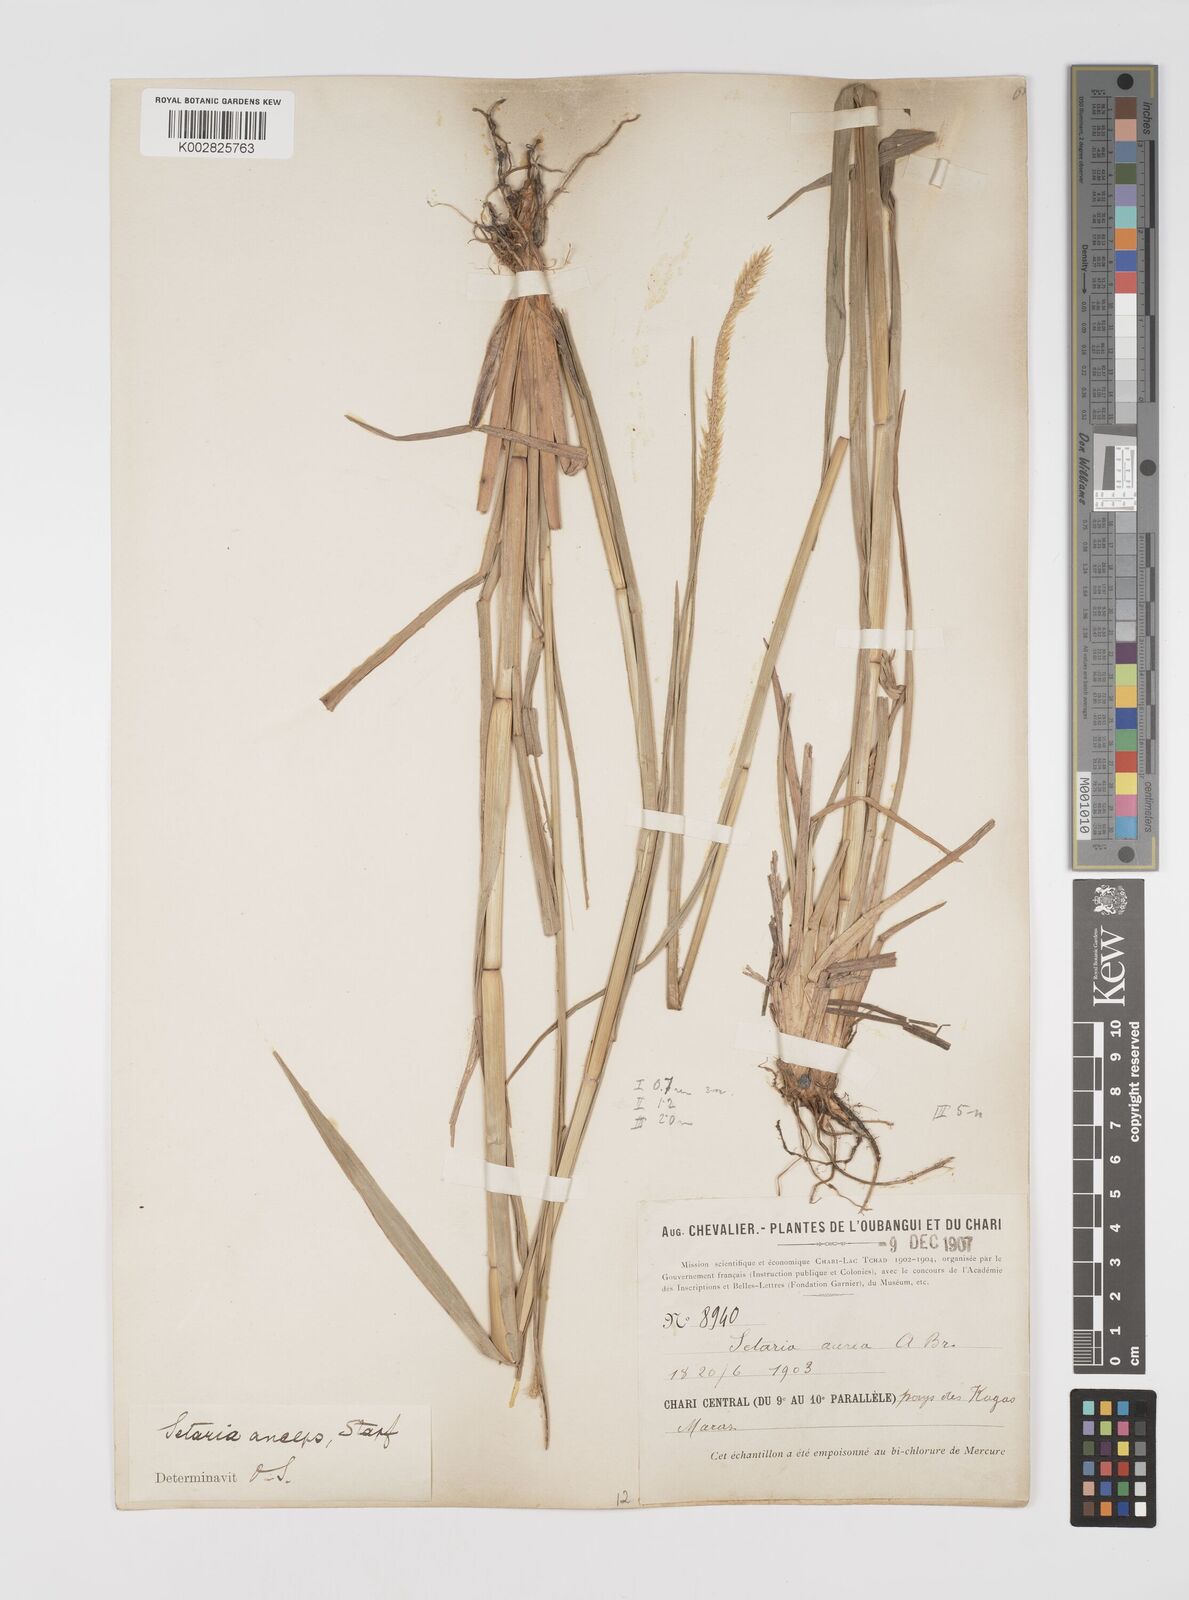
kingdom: Plantae
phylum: Tracheophyta
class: Liliopsida
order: Poales
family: Poaceae
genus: Setaria
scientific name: Setaria sphacelata
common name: African bristlegrass
